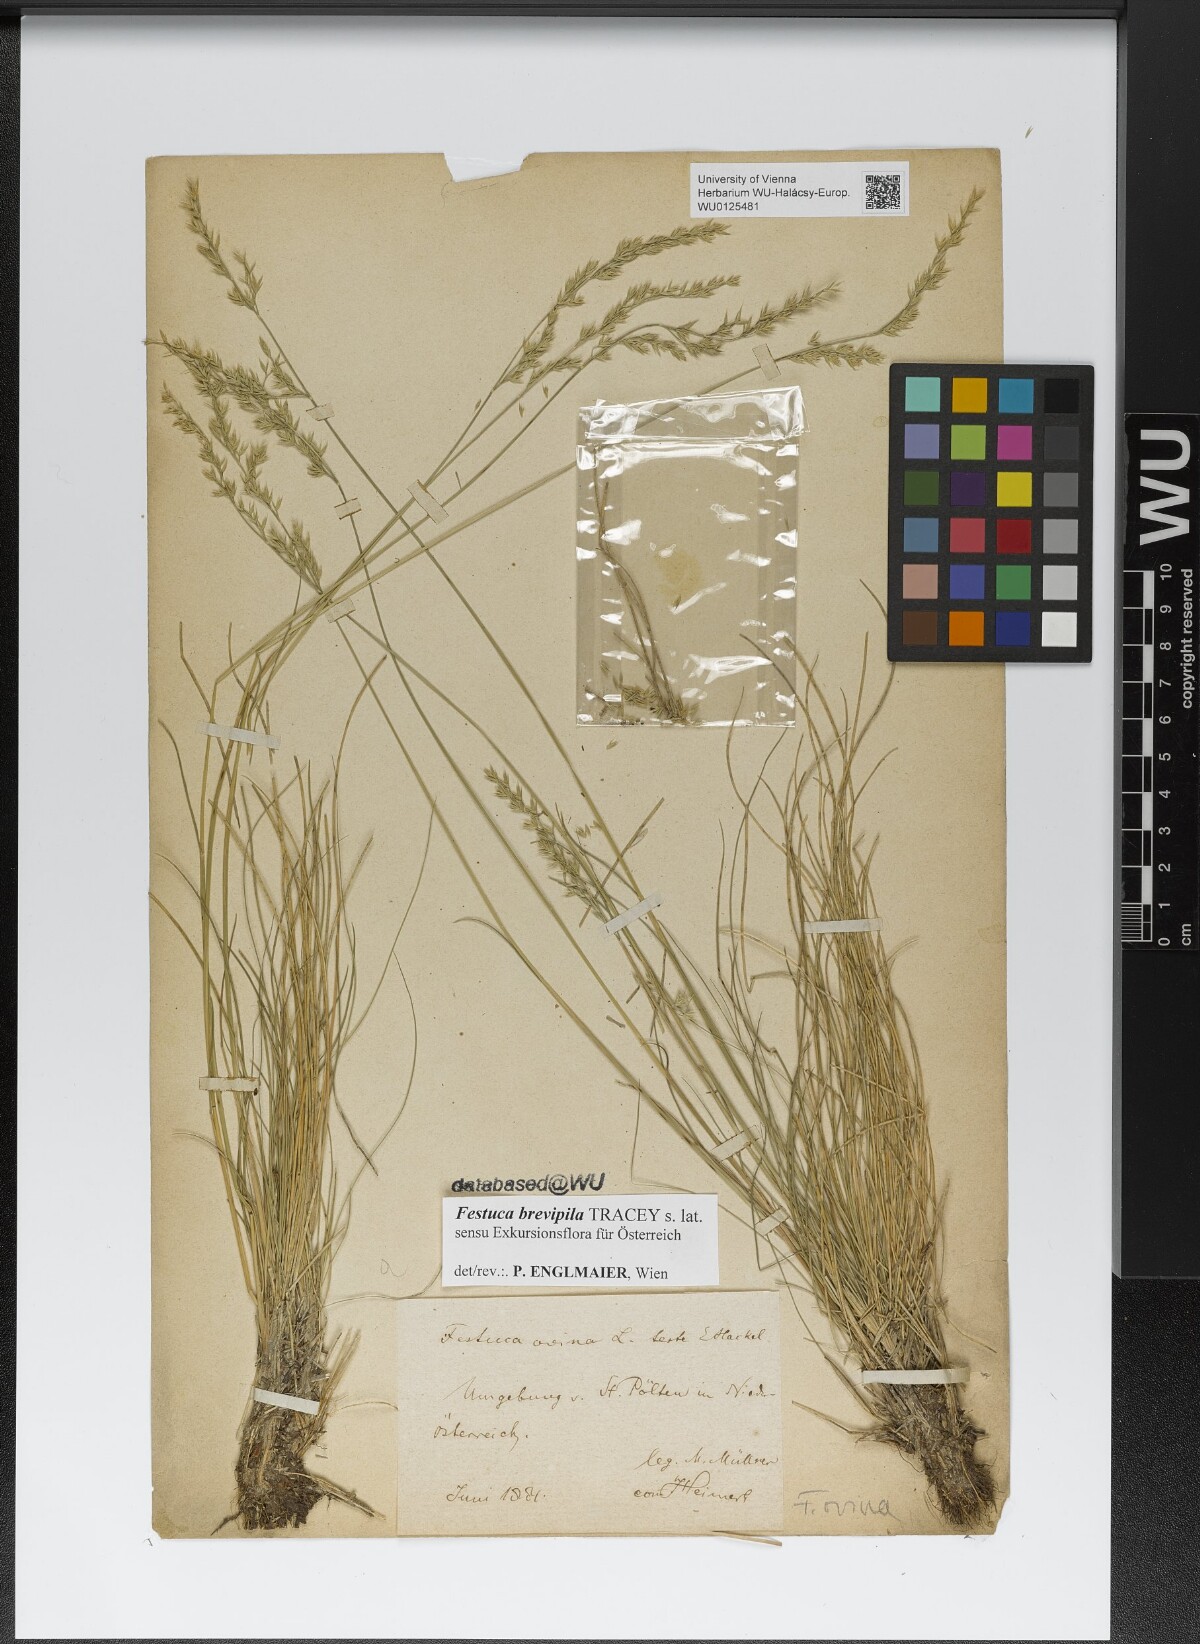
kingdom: Plantae
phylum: Tracheophyta
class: Liliopsida
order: Poales
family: Poaceae
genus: Festuca
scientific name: Festuca trachyphylla
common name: Hard fescue
